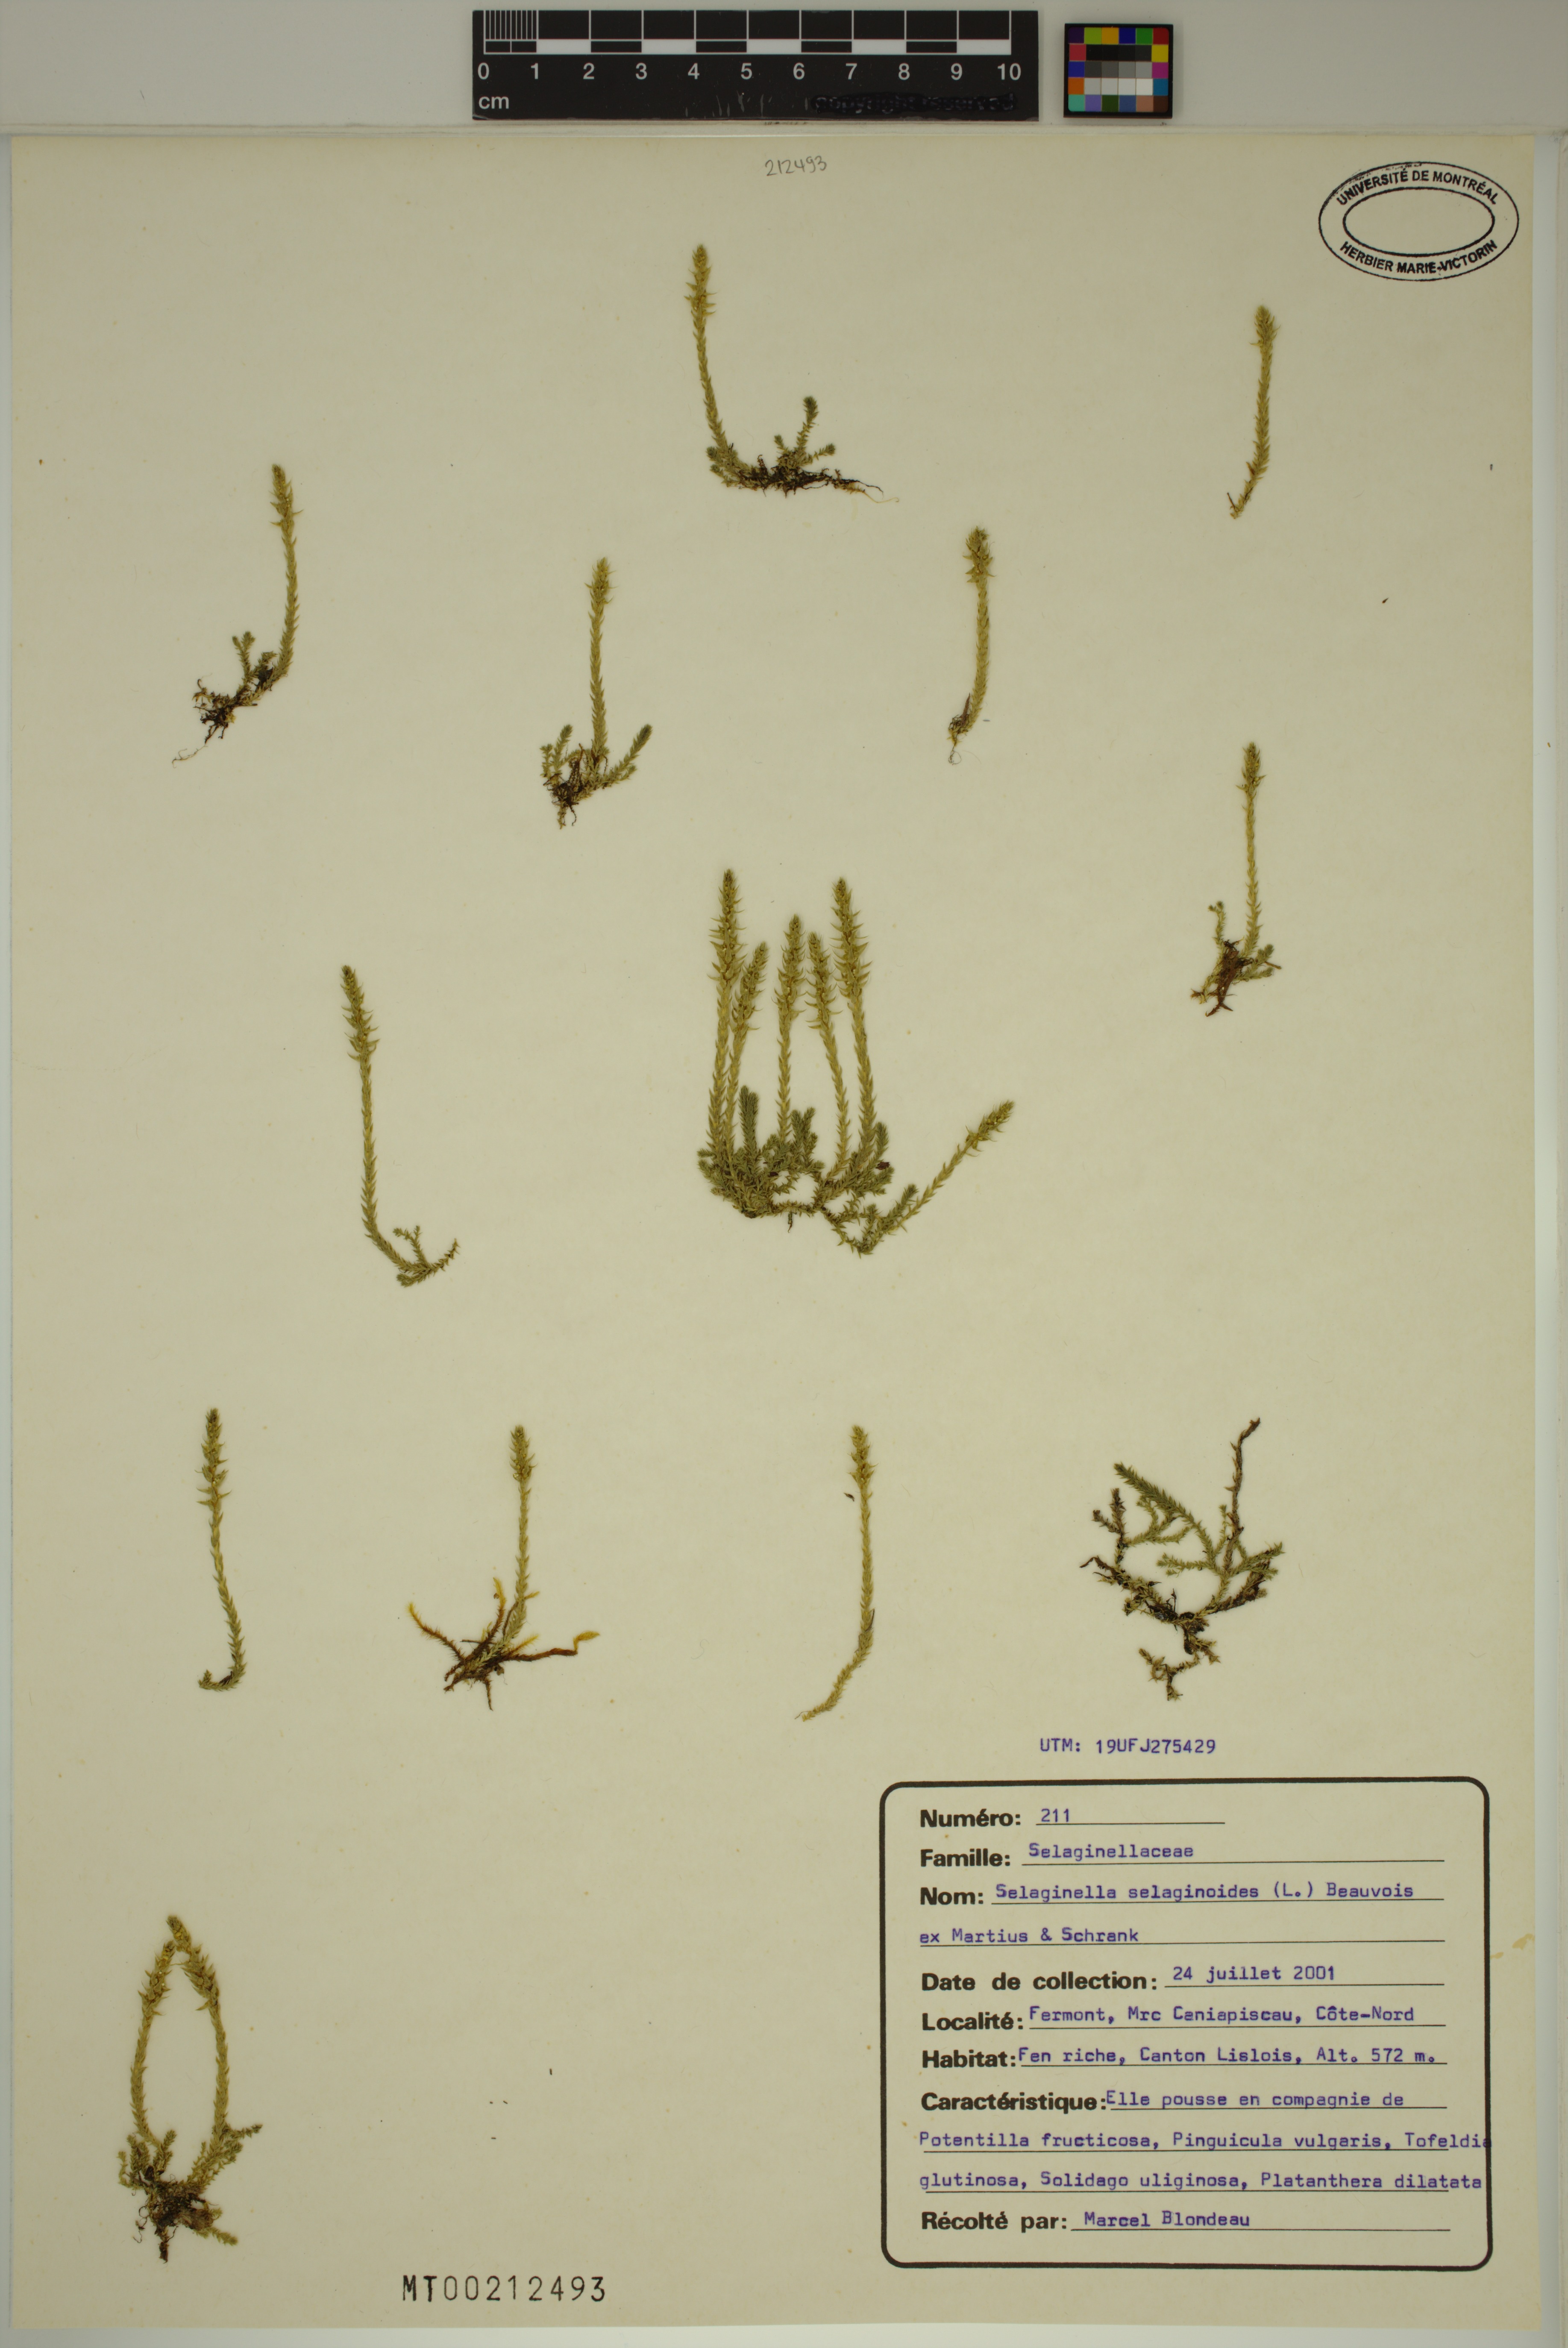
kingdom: Plantae
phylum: Tracheophyta
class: Lycopodiopsida
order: Selaginellales
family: Selaginellaceae
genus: Selaginella
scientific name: Selaginella selaginoides
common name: Prickly mountain-moss
